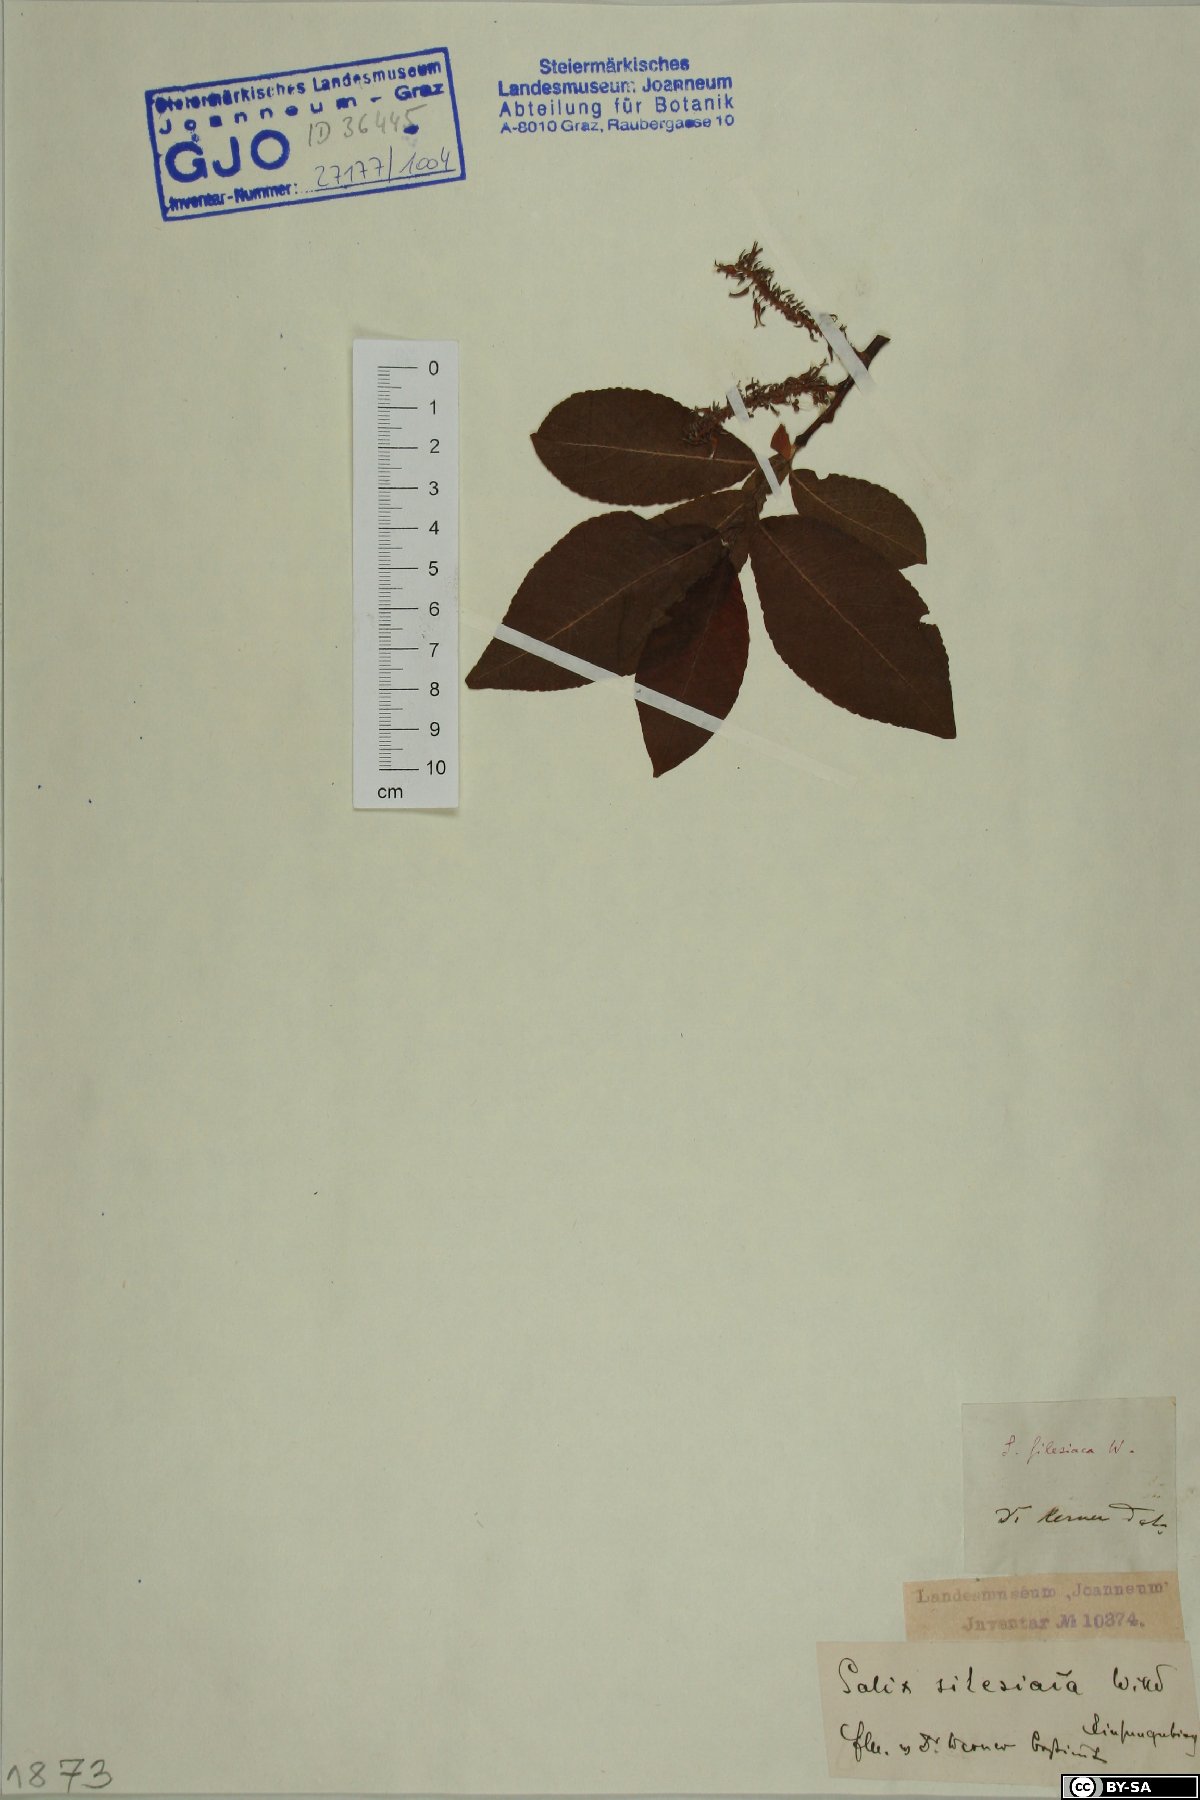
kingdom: Plantae
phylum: Tracheophyta
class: Magnoliopsida
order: Malpighiales
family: Salicaceae
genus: Salix
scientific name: Salix silesiaca
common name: Silesian willow
